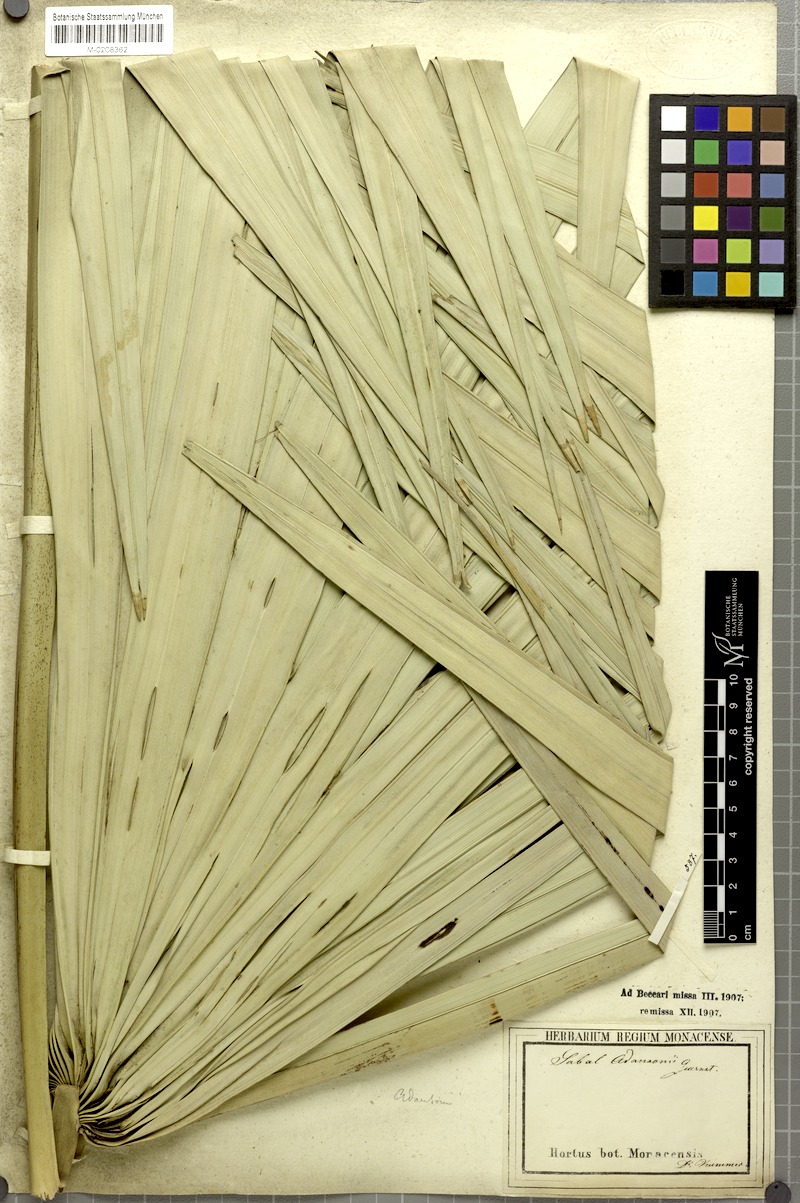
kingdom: Plantae
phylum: Tracheophyta
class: Liliopsida
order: Arecales
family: Arecaceae
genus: Sabal
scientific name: Sabal minor
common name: Dwarf palmetto
